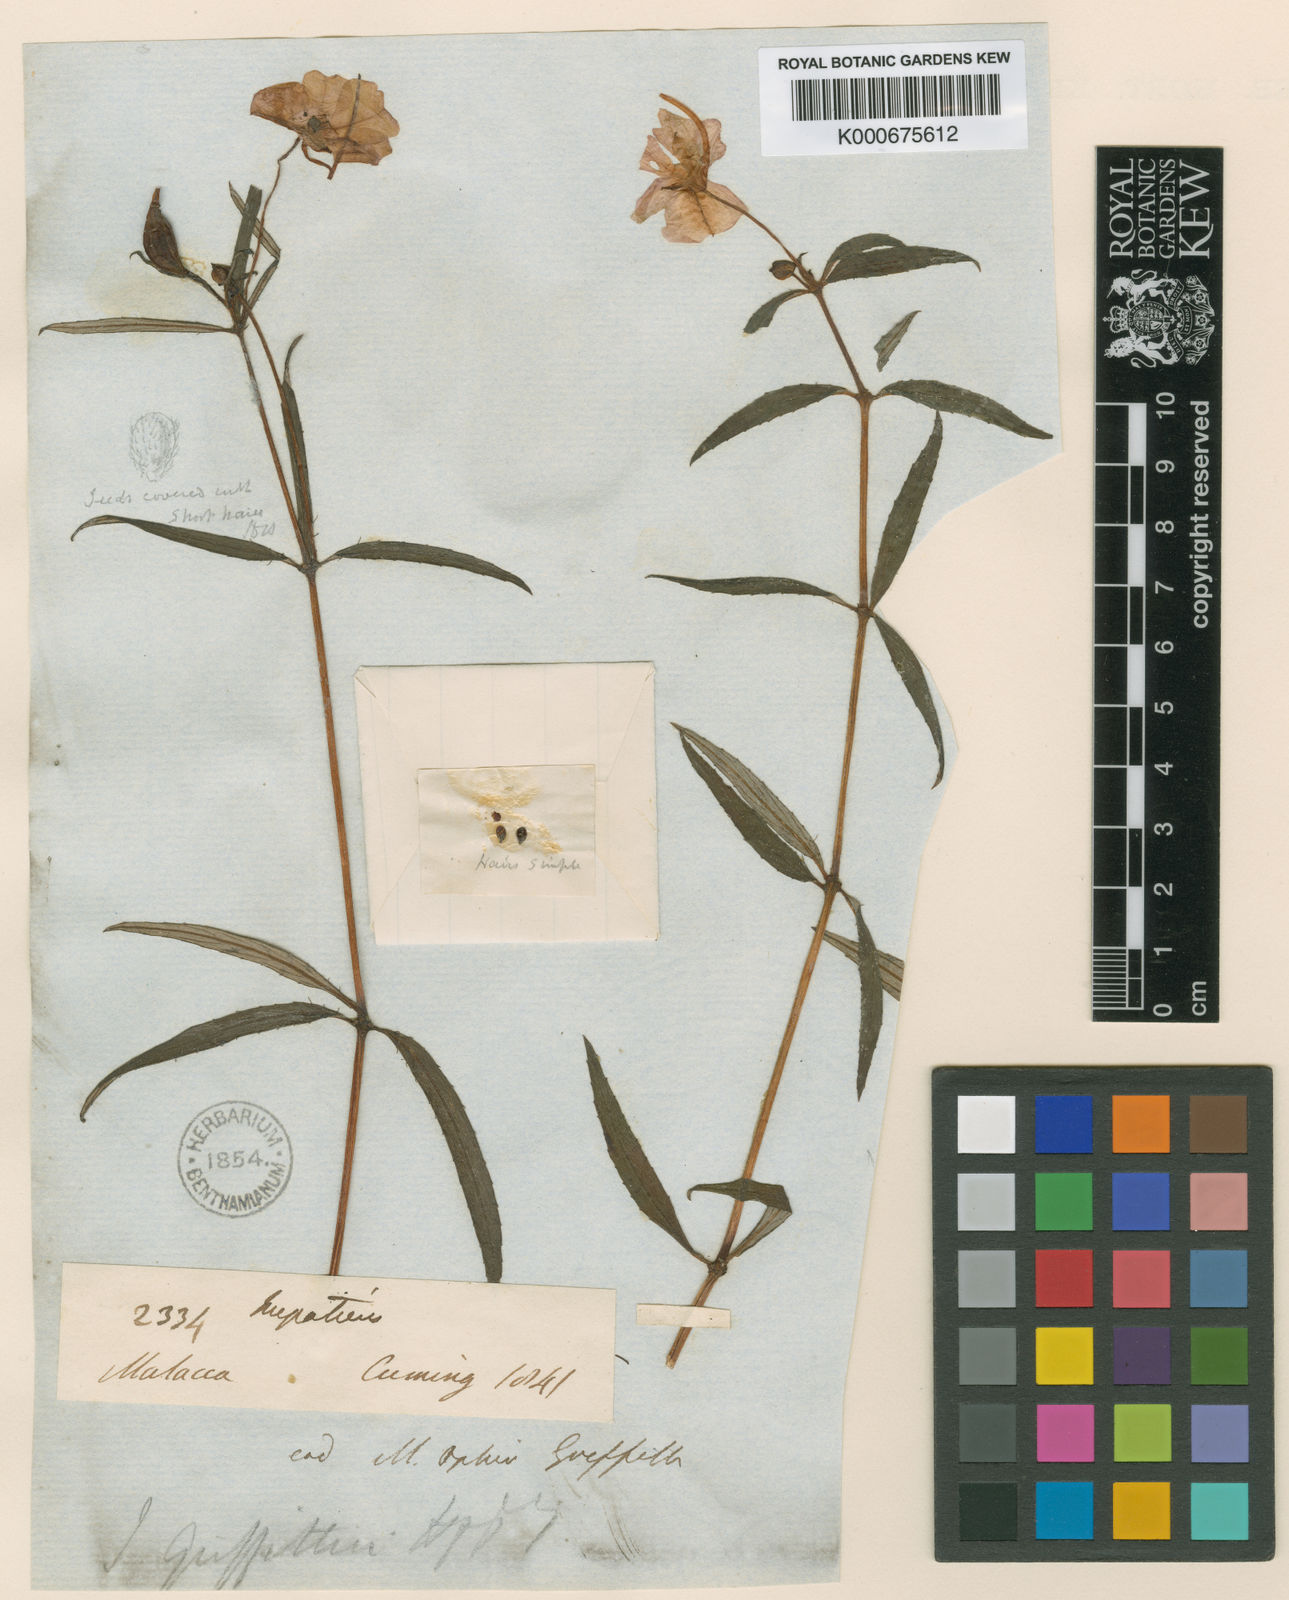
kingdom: Plantae
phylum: Tracheophyta
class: Magnoliopsida
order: Ericales
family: Balsaminaceae
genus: Impatiens
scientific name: Impatiens griffithii
